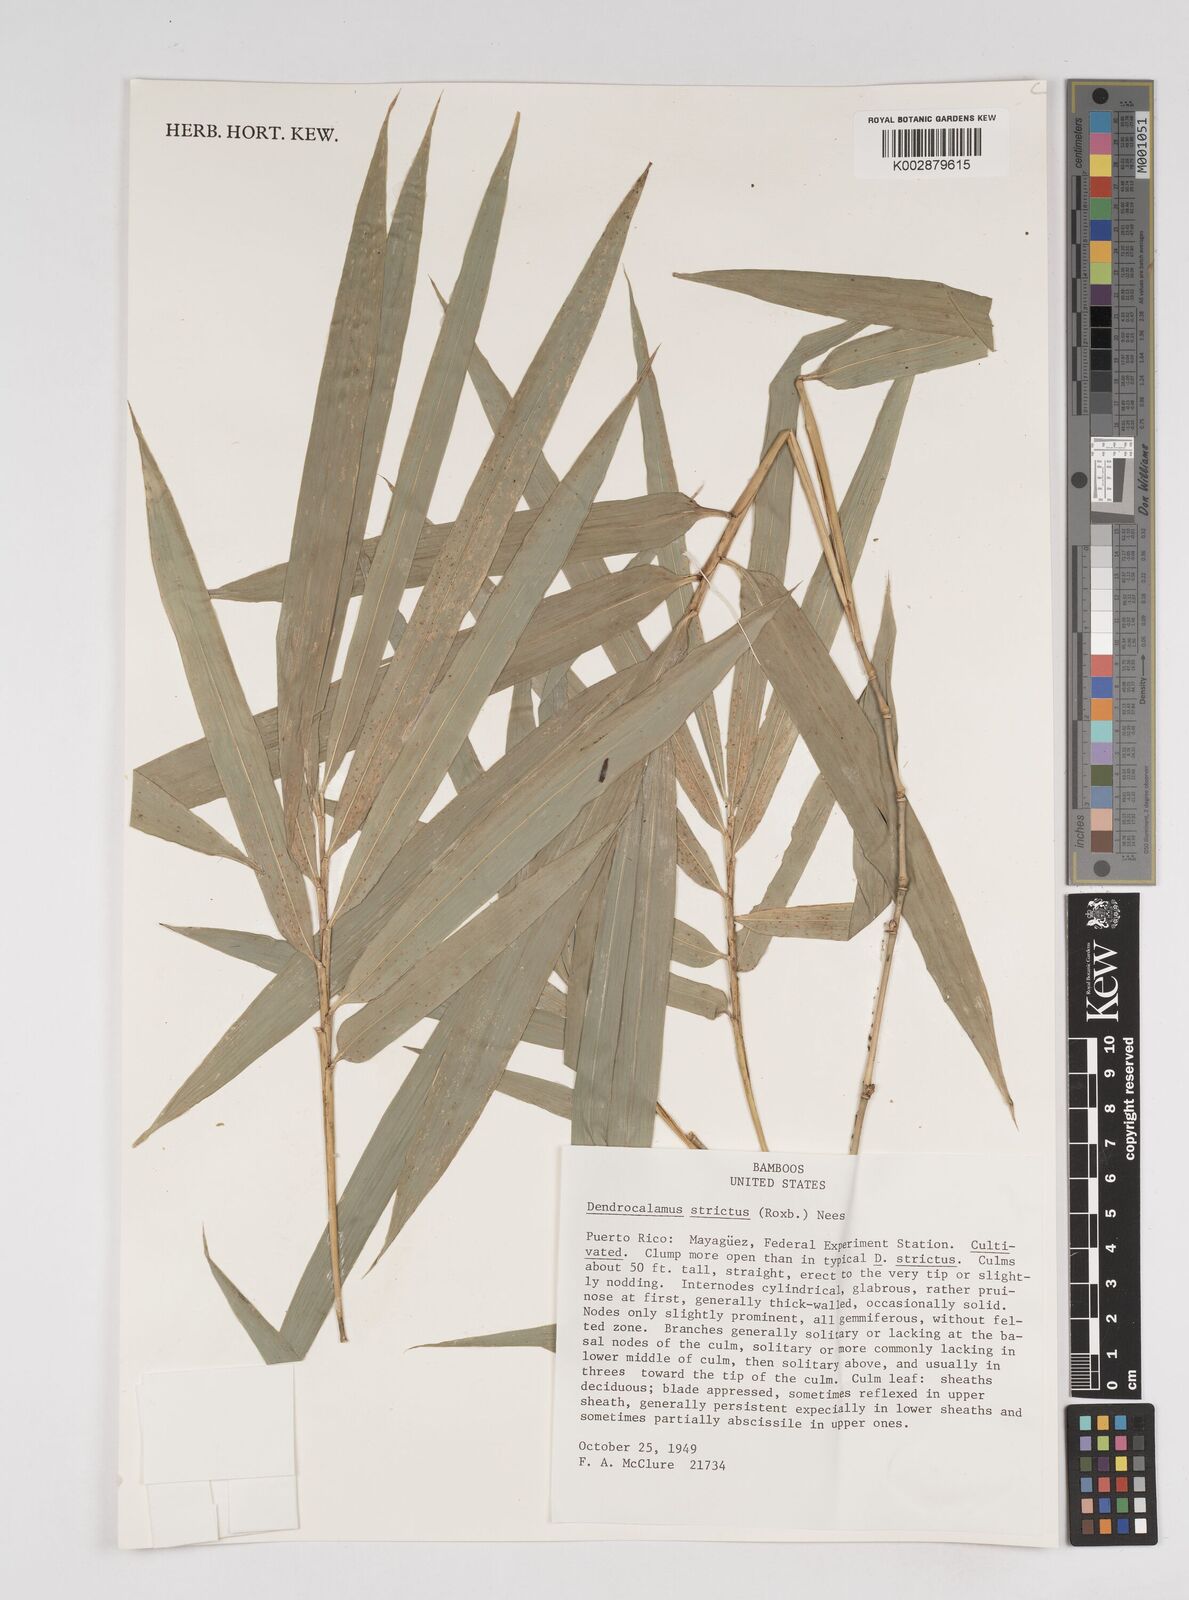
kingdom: Plantae
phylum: Tracheophyta
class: Liliopsida
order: Poales
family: Poaceae
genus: Dendrocalamus
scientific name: Dendrocalamus strictus
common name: Male bamboo
